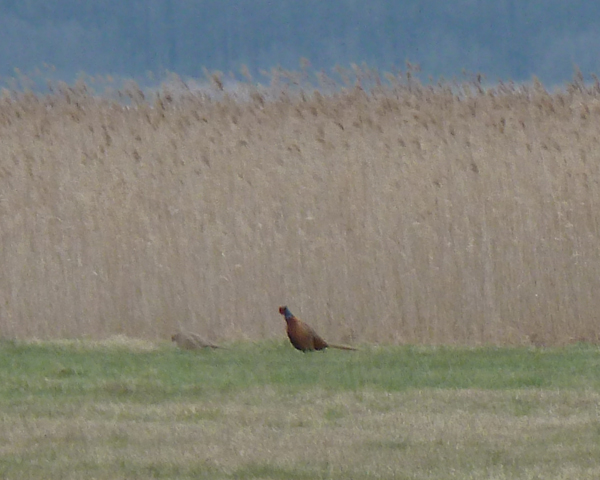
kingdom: Animalia
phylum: Chordata
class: Aves
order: Galliformes
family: Phasianidae
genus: Phasianus
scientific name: Phasianus colchicus
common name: Common pheasant
